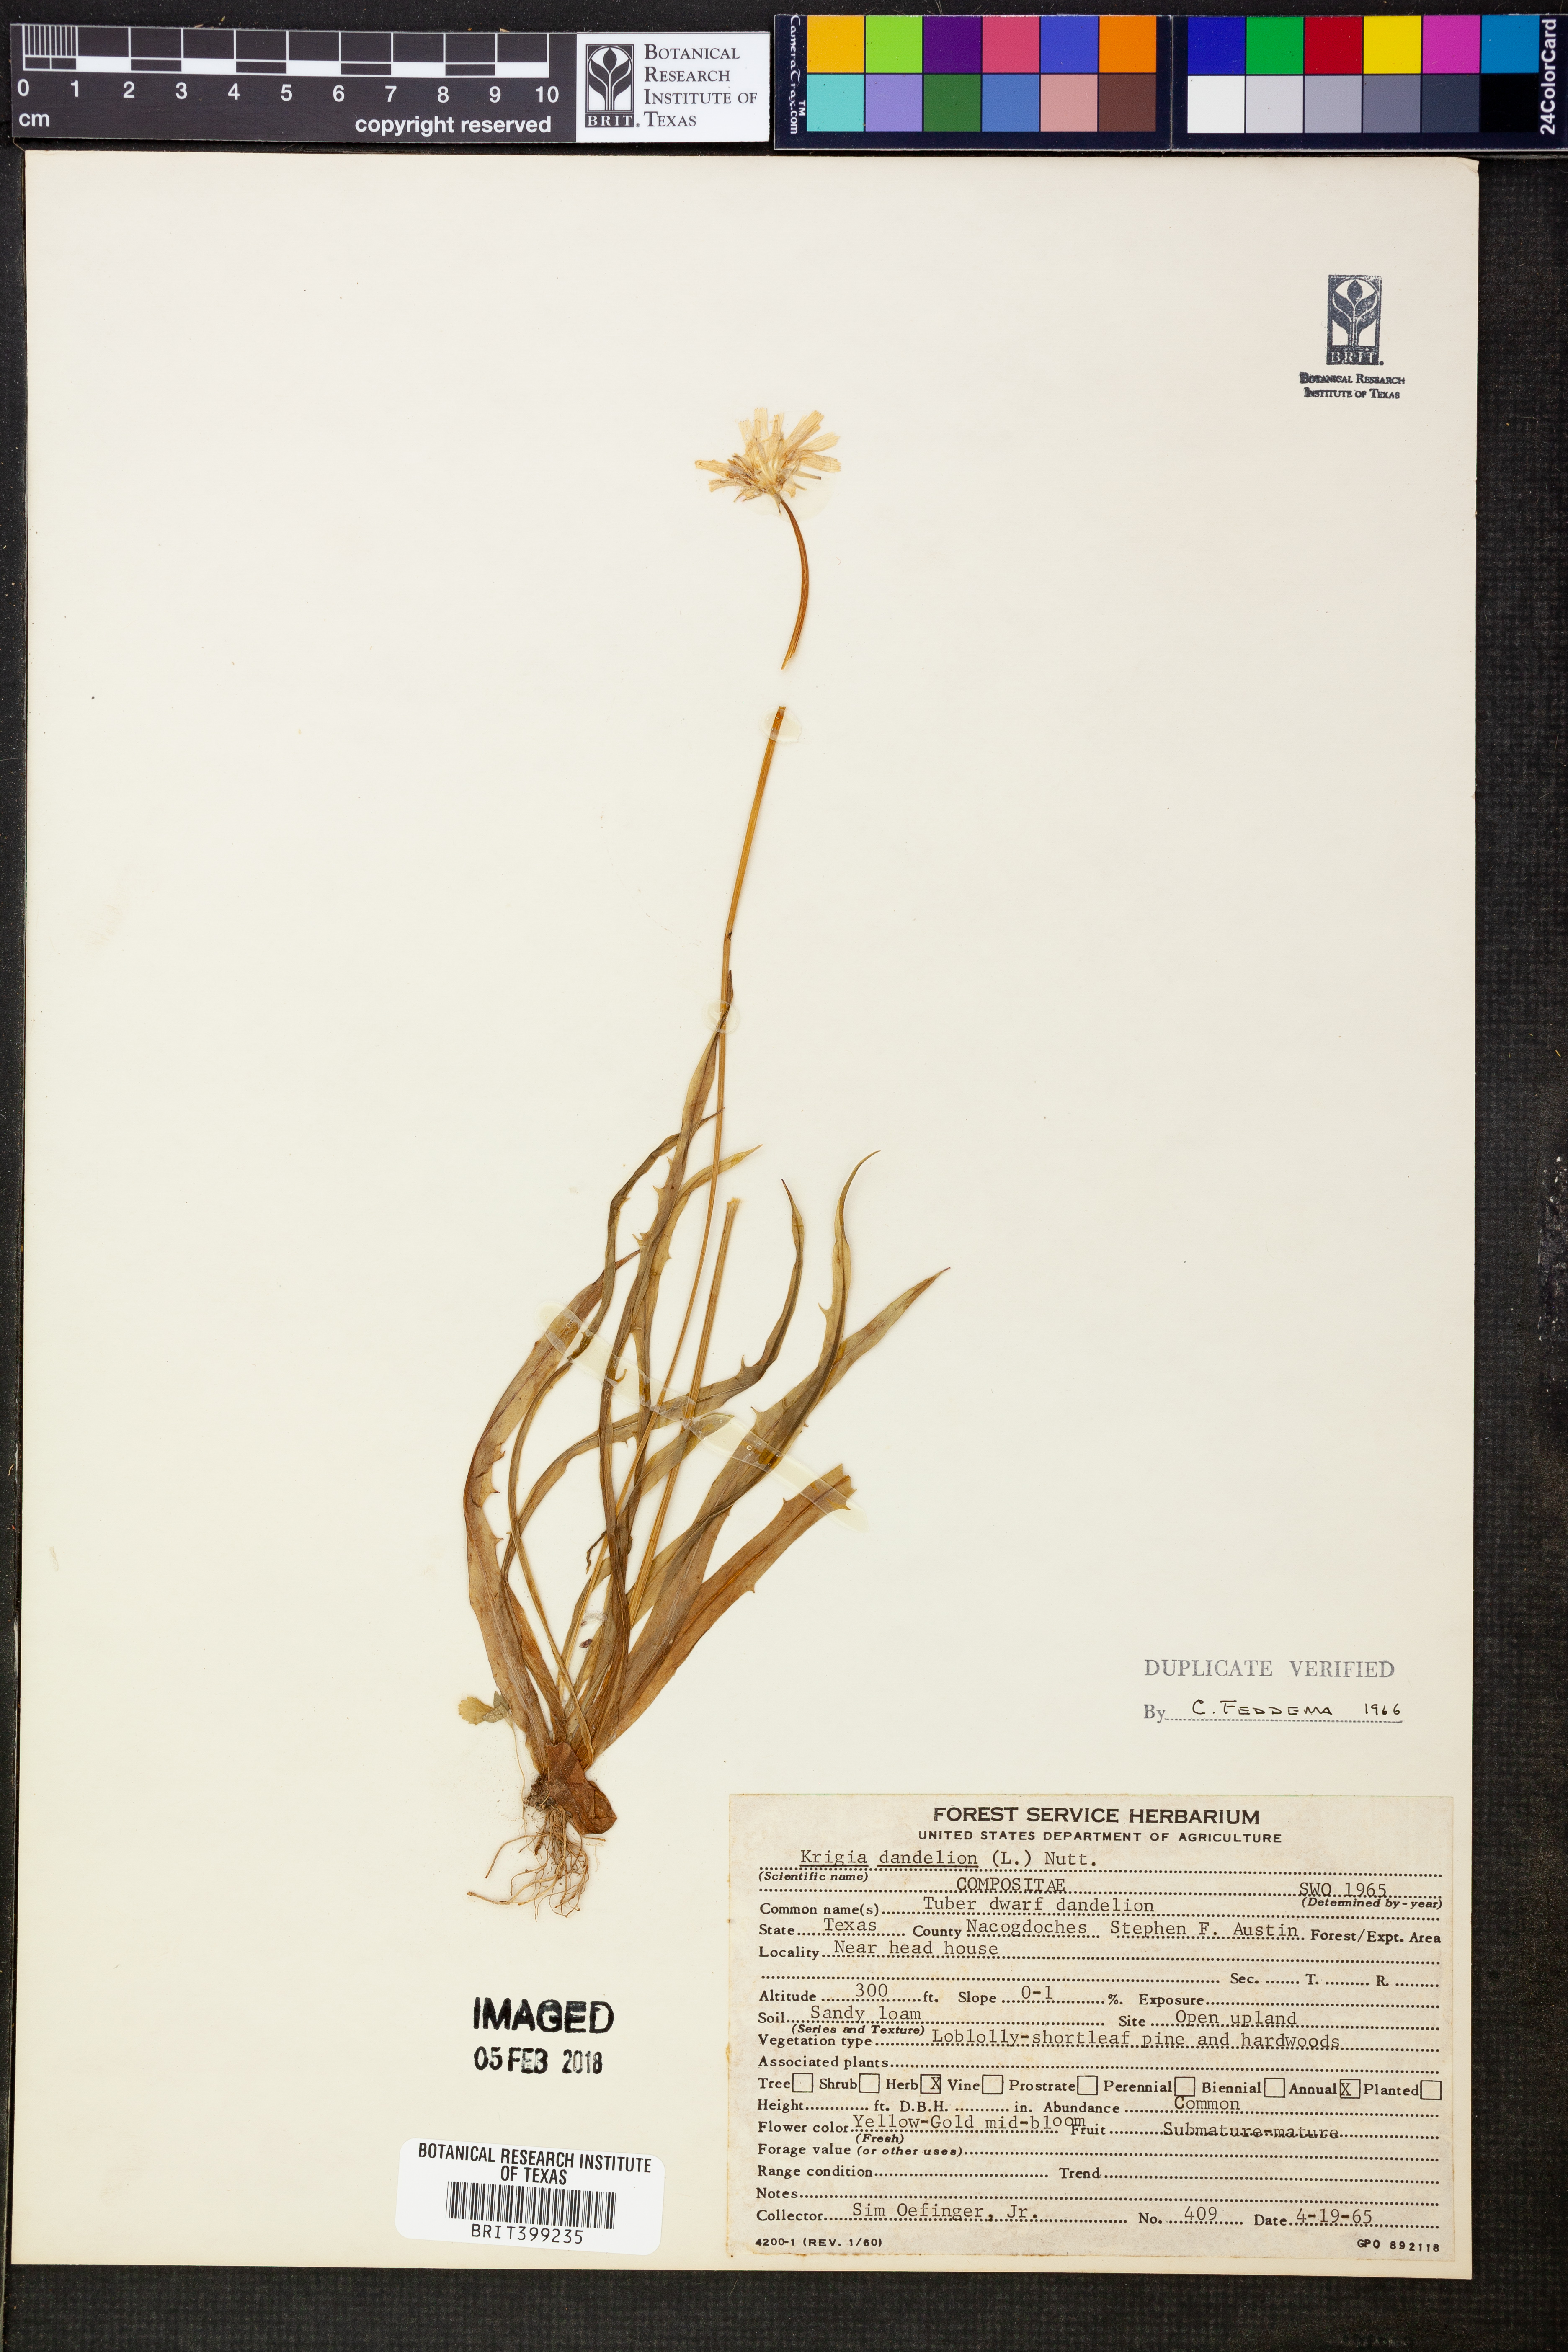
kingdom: Plantae
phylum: Tracheophyta
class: Magnoliopsida
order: Asterales
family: Asteraceae
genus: Krigia
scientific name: Krigia dandelion
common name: Colonial dwarf-dandelion
